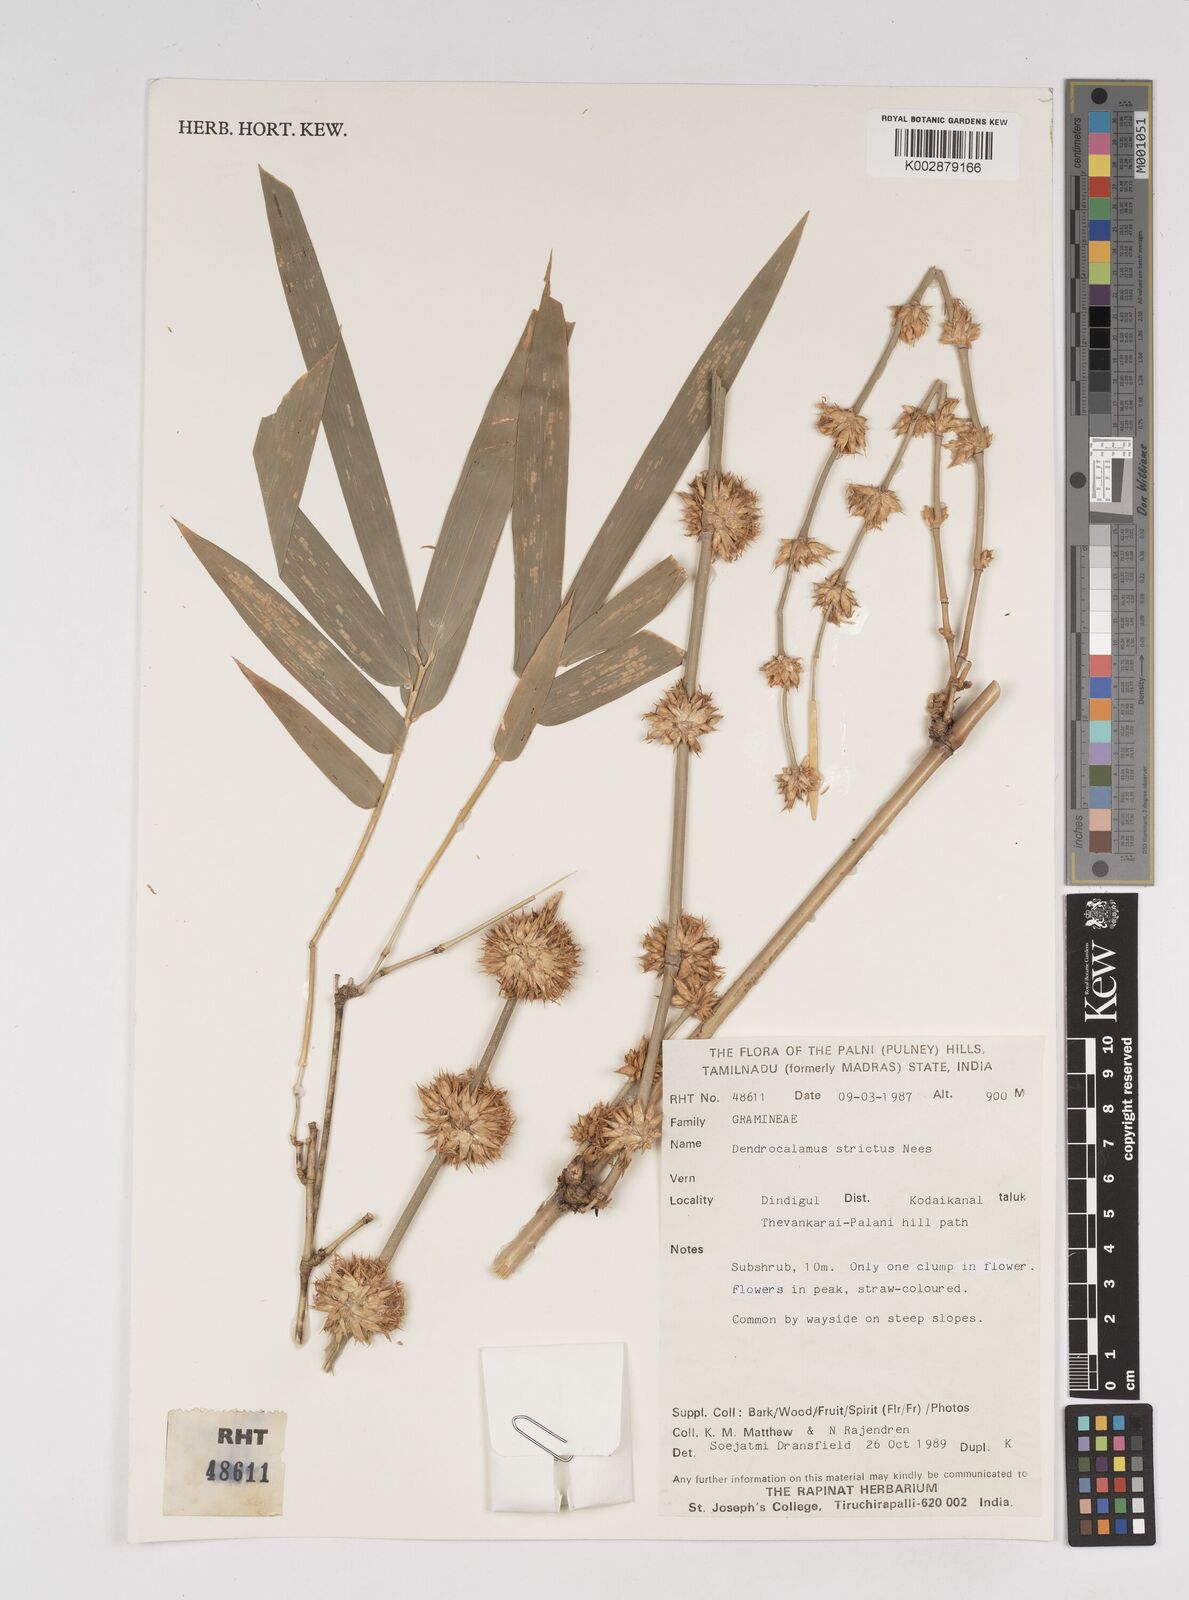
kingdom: Plantae
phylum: Tracheophyta
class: Liliopsida
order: Poales
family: Poaceae
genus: Dendrocalamus
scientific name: Dendrocalamus strictus
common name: Male bamboo
